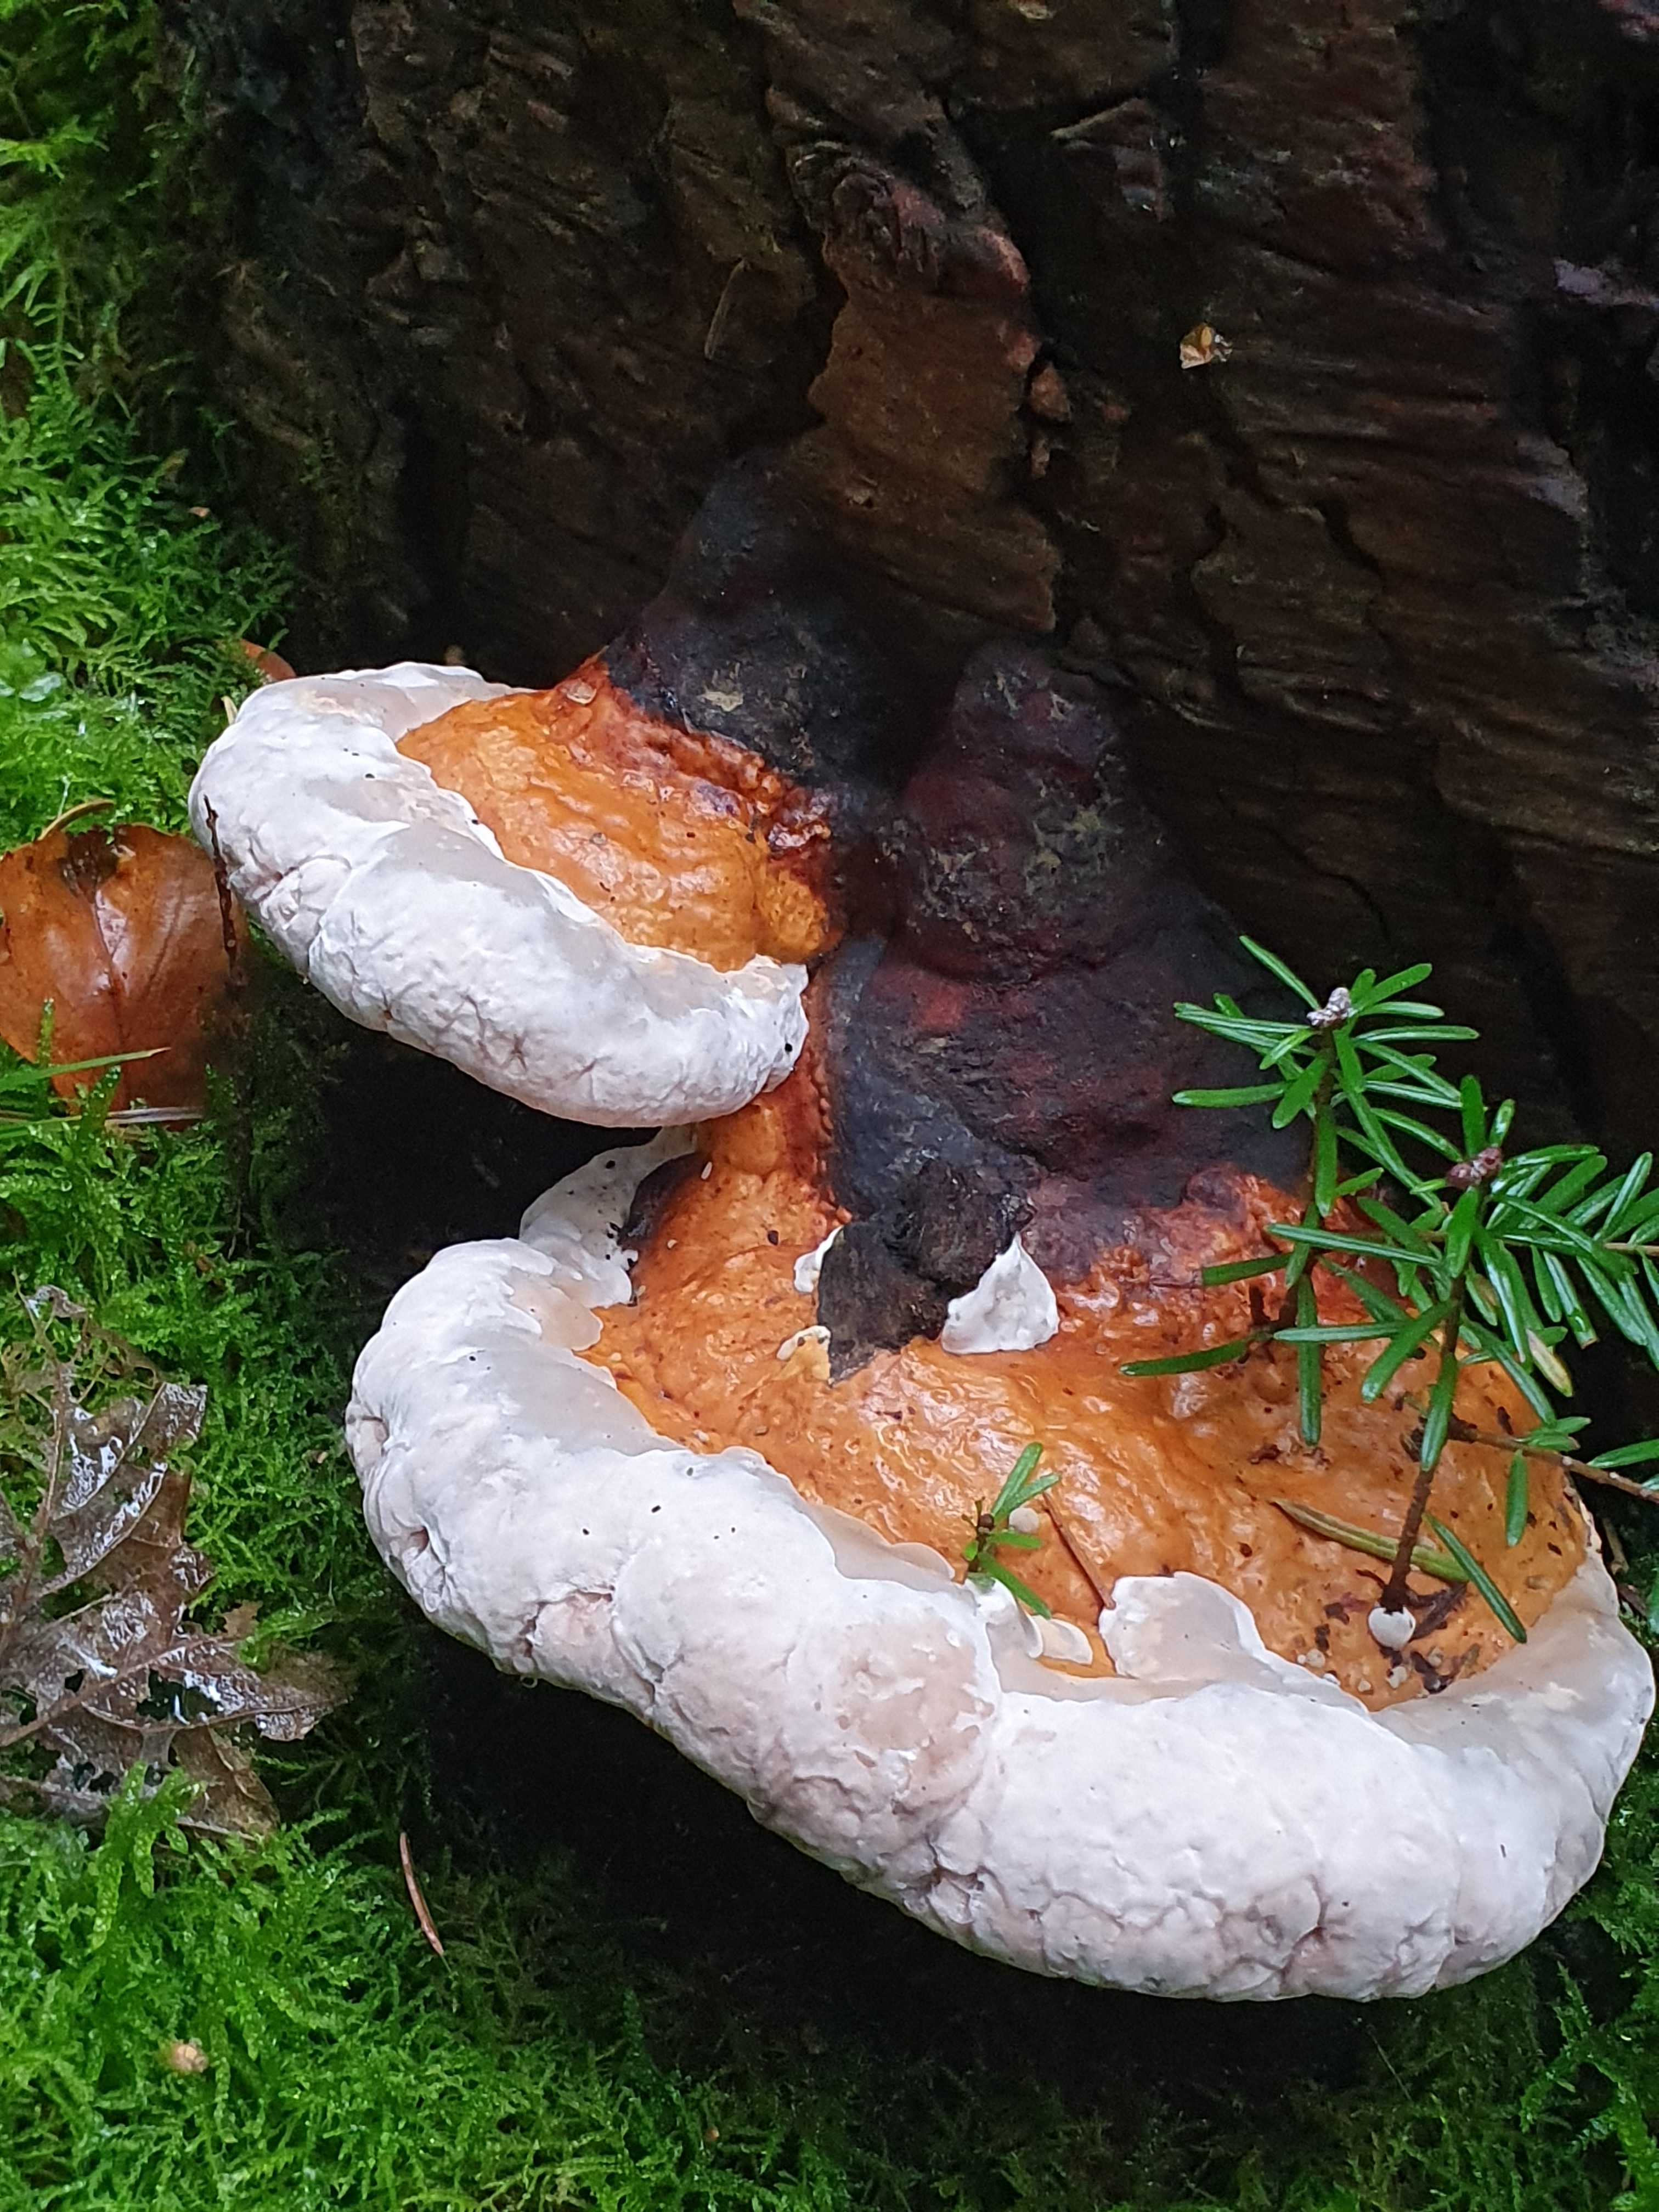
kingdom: Fungi
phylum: Basidiomycota
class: Agaricomycetes
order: Polyporales
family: Fomitopsidaceae
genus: Fomitopsis
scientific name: Fomitopsis pinicola
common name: randbæltet hovporesvamp
